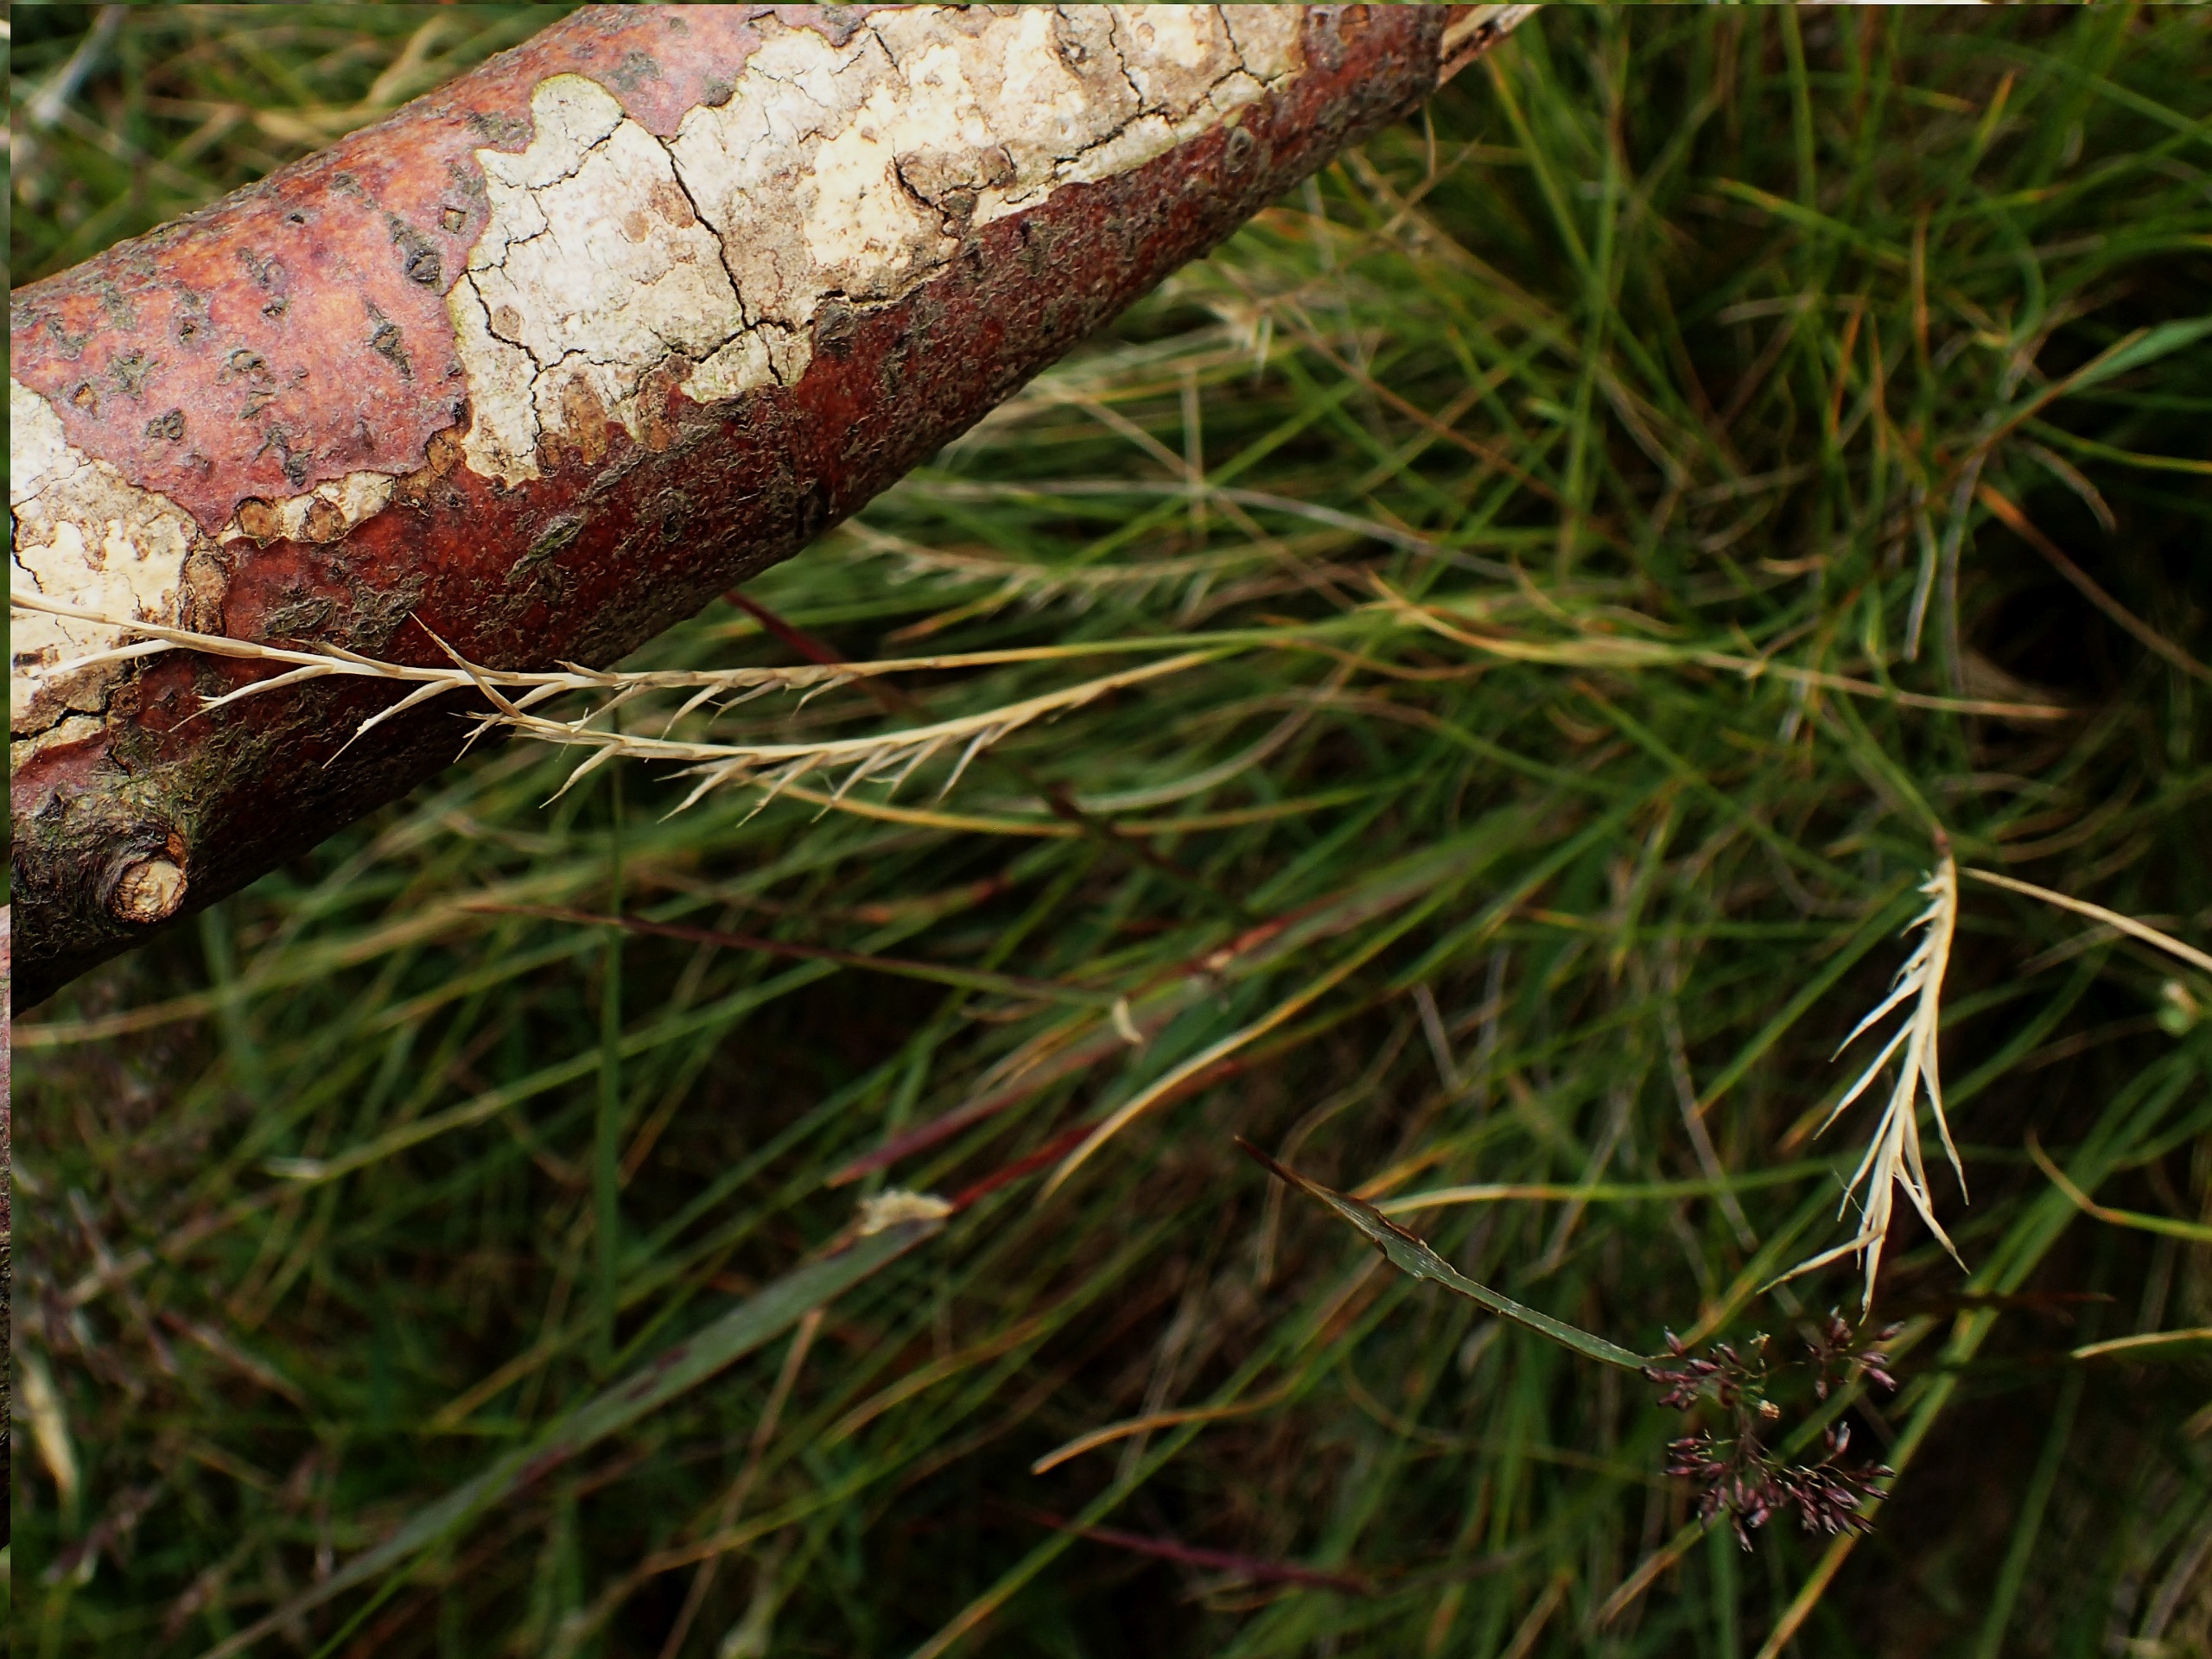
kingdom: Plantae
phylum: Tracheophyta
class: Liliopsida
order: Poales
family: Poaceae
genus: Nardus
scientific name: Nardus stricta
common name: Katteskæg
